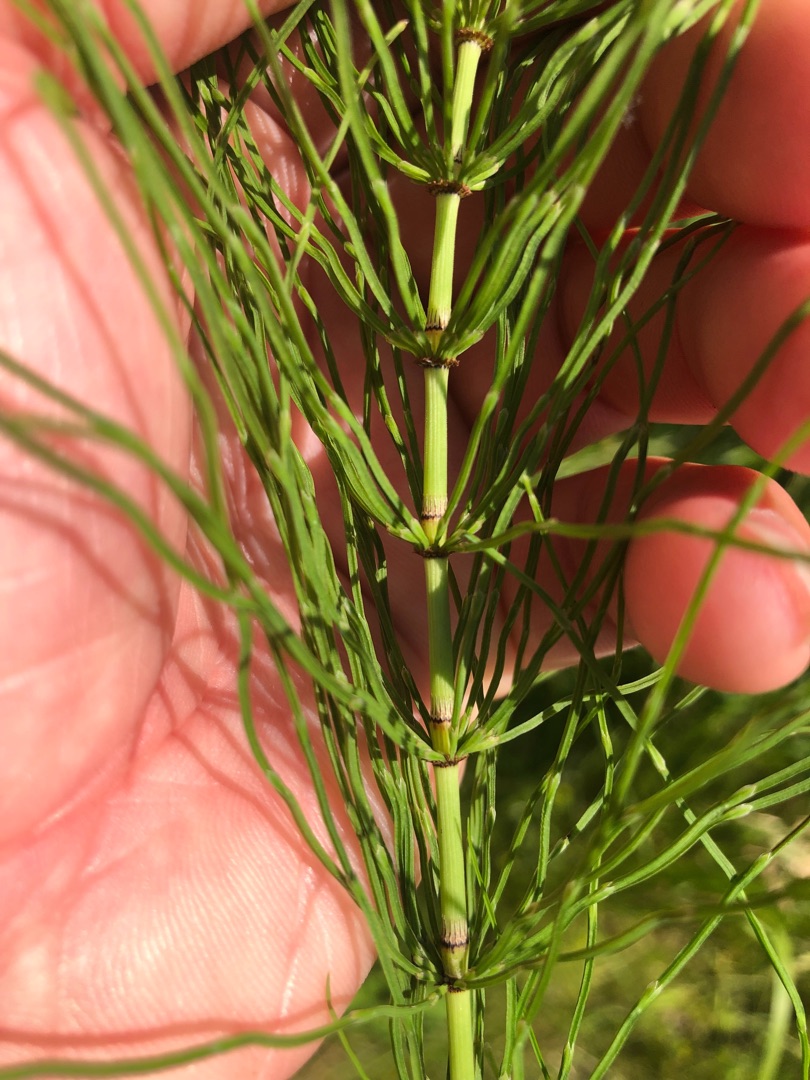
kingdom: Plantae
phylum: Tracheophyta
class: Polypodiopsida
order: Equisetales
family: Equisetaceae
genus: Equisetum
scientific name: Equisetum pratense
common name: Lund-padderok
